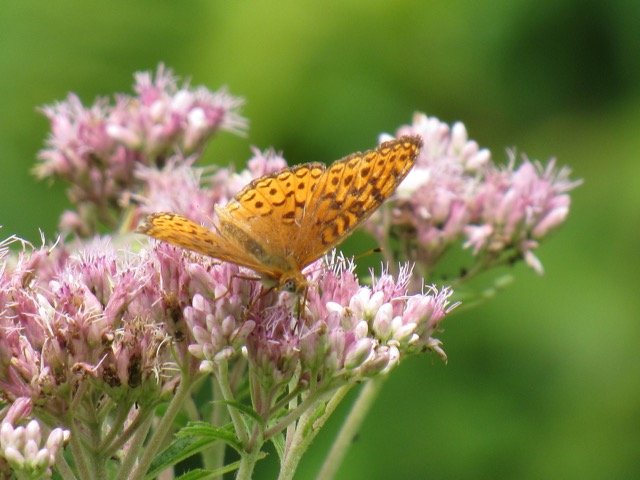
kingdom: Animalia
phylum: Arthropoda
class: Insecta
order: Lepidoptera
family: Nymphalidae
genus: Speyeria
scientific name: Speyeria atlantis
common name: Atlantis Fritillary
